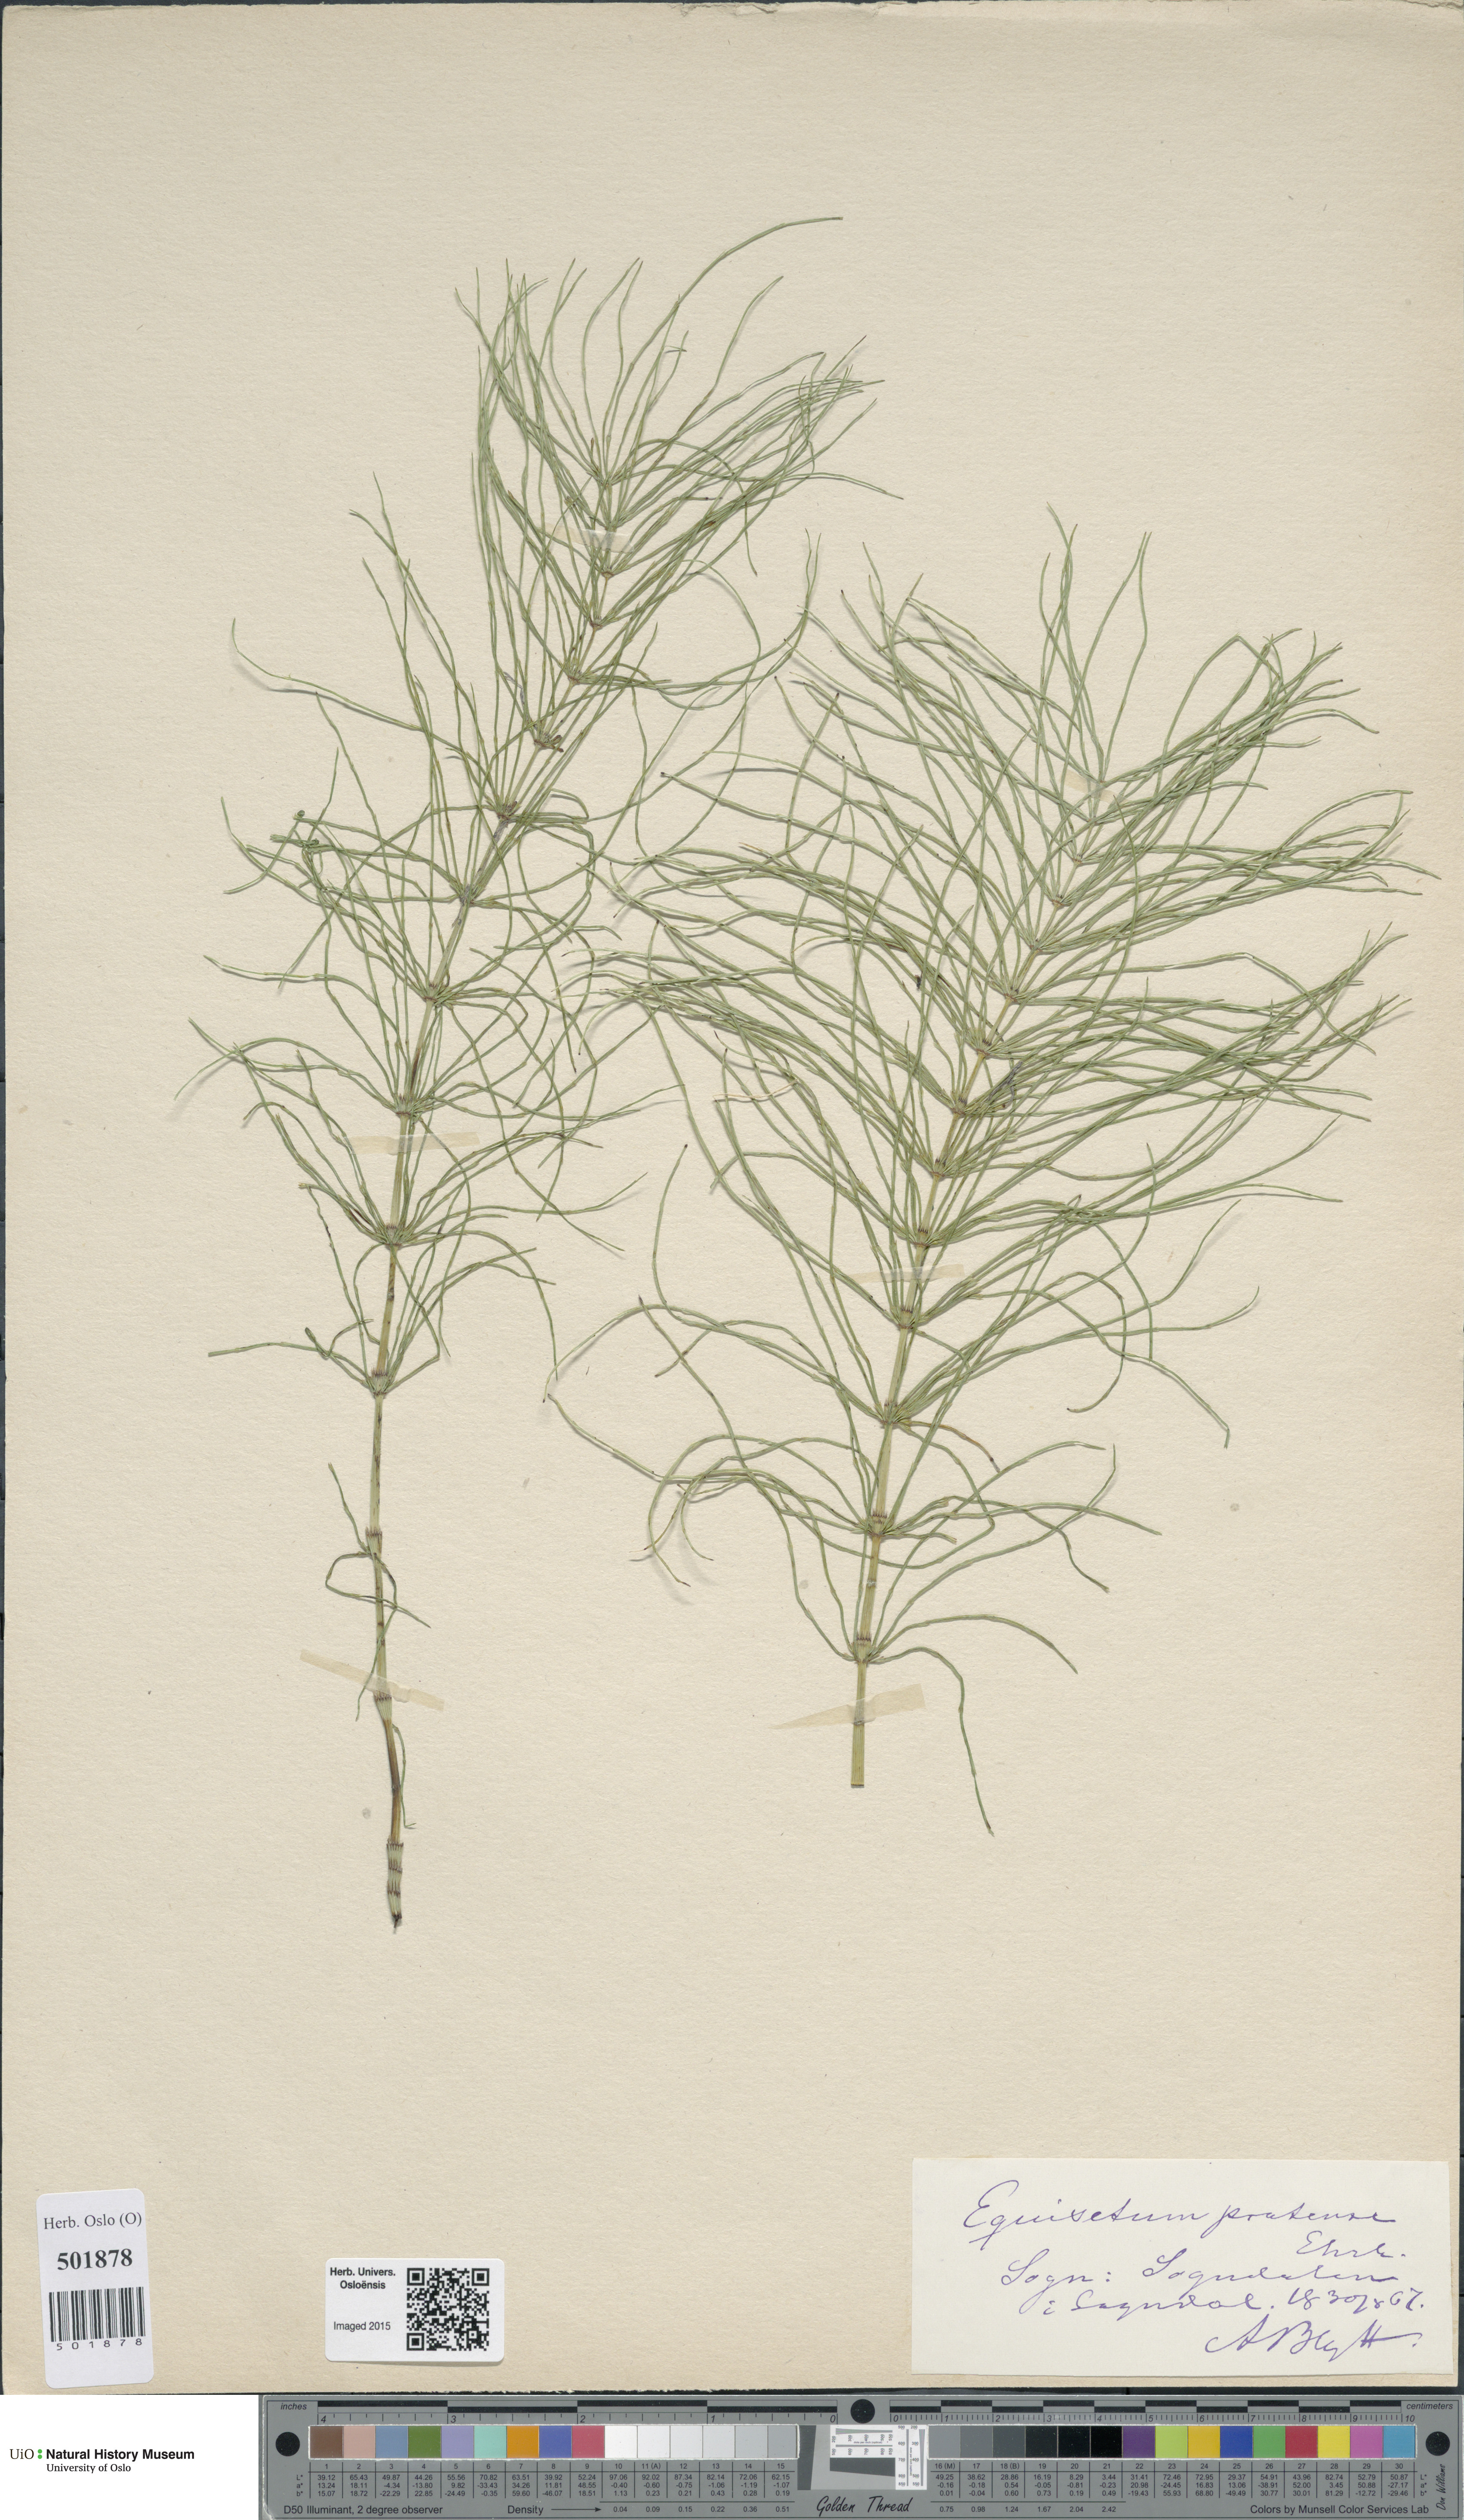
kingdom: Plantae
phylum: Tracheophyta
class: Polypodiopsida
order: Equisetales
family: Equisetaceae
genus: Equisetum
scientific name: Equisetum pratense
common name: Meadow horsetail
